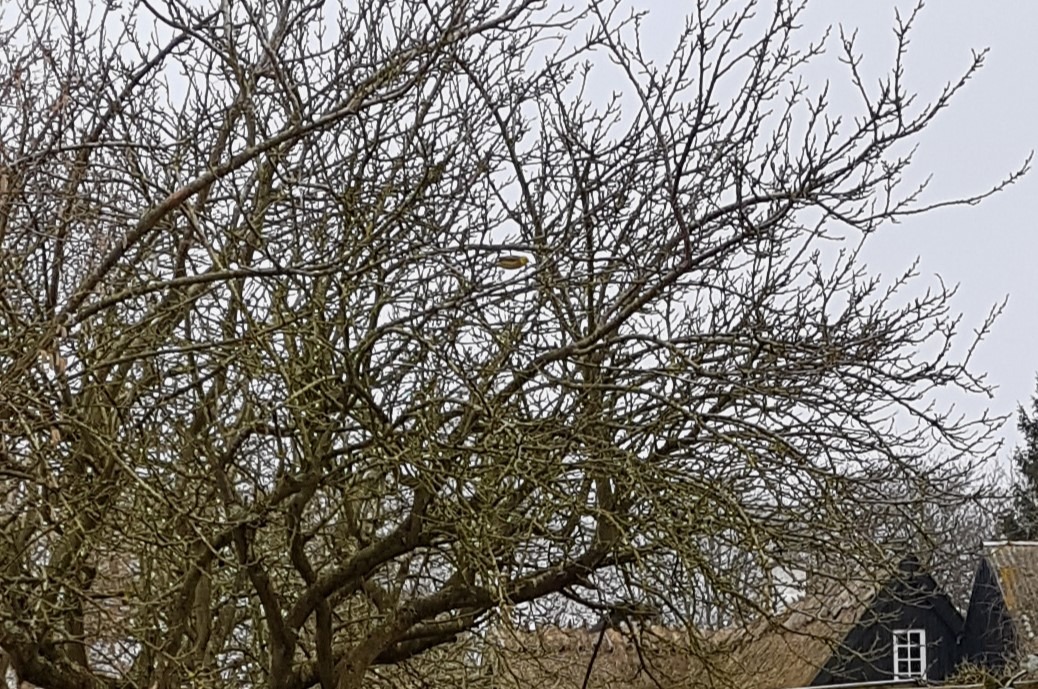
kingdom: Animalia
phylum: Chordata
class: Aves
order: Passeriformes
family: Emberizidae
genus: Emberiza
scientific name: Emberiza citrinella
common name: Gulspurv
